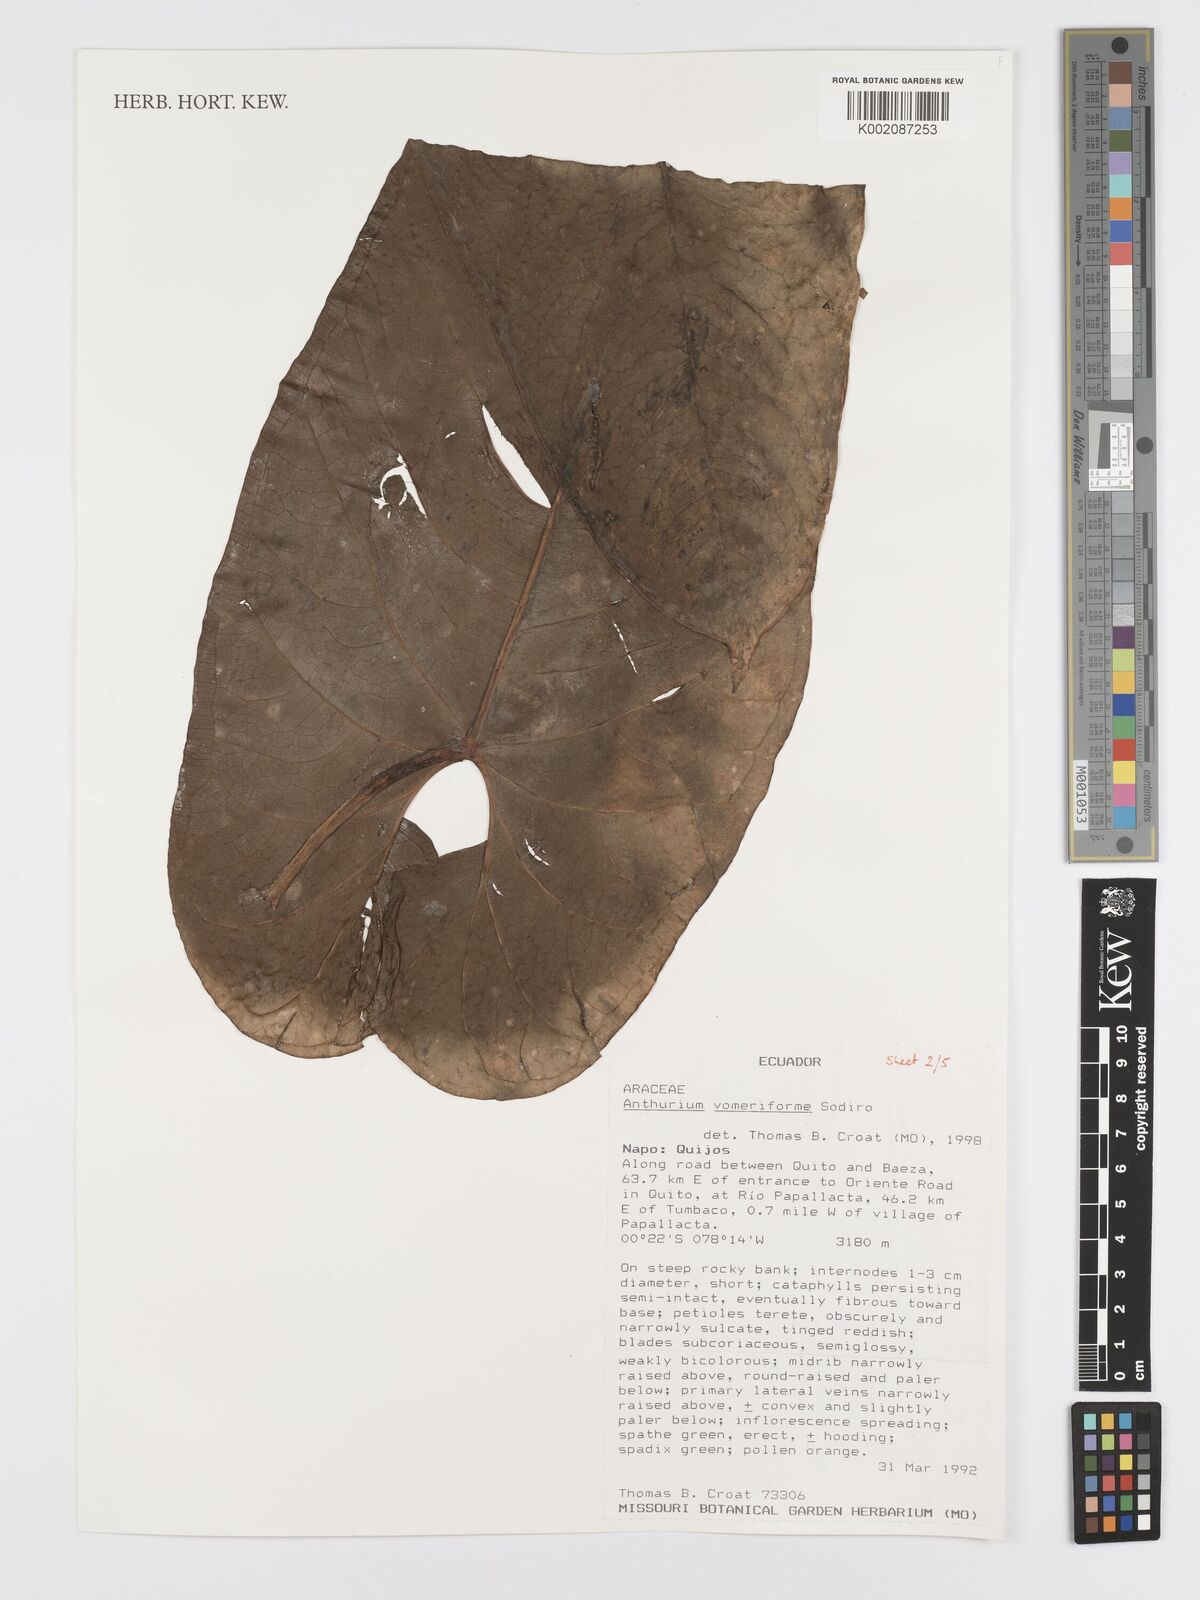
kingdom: Plantae
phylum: Tracheophyta
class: Liliopsida
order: Alismatales
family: Araceae
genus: Anthurium
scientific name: Anthurium vomeriforme
